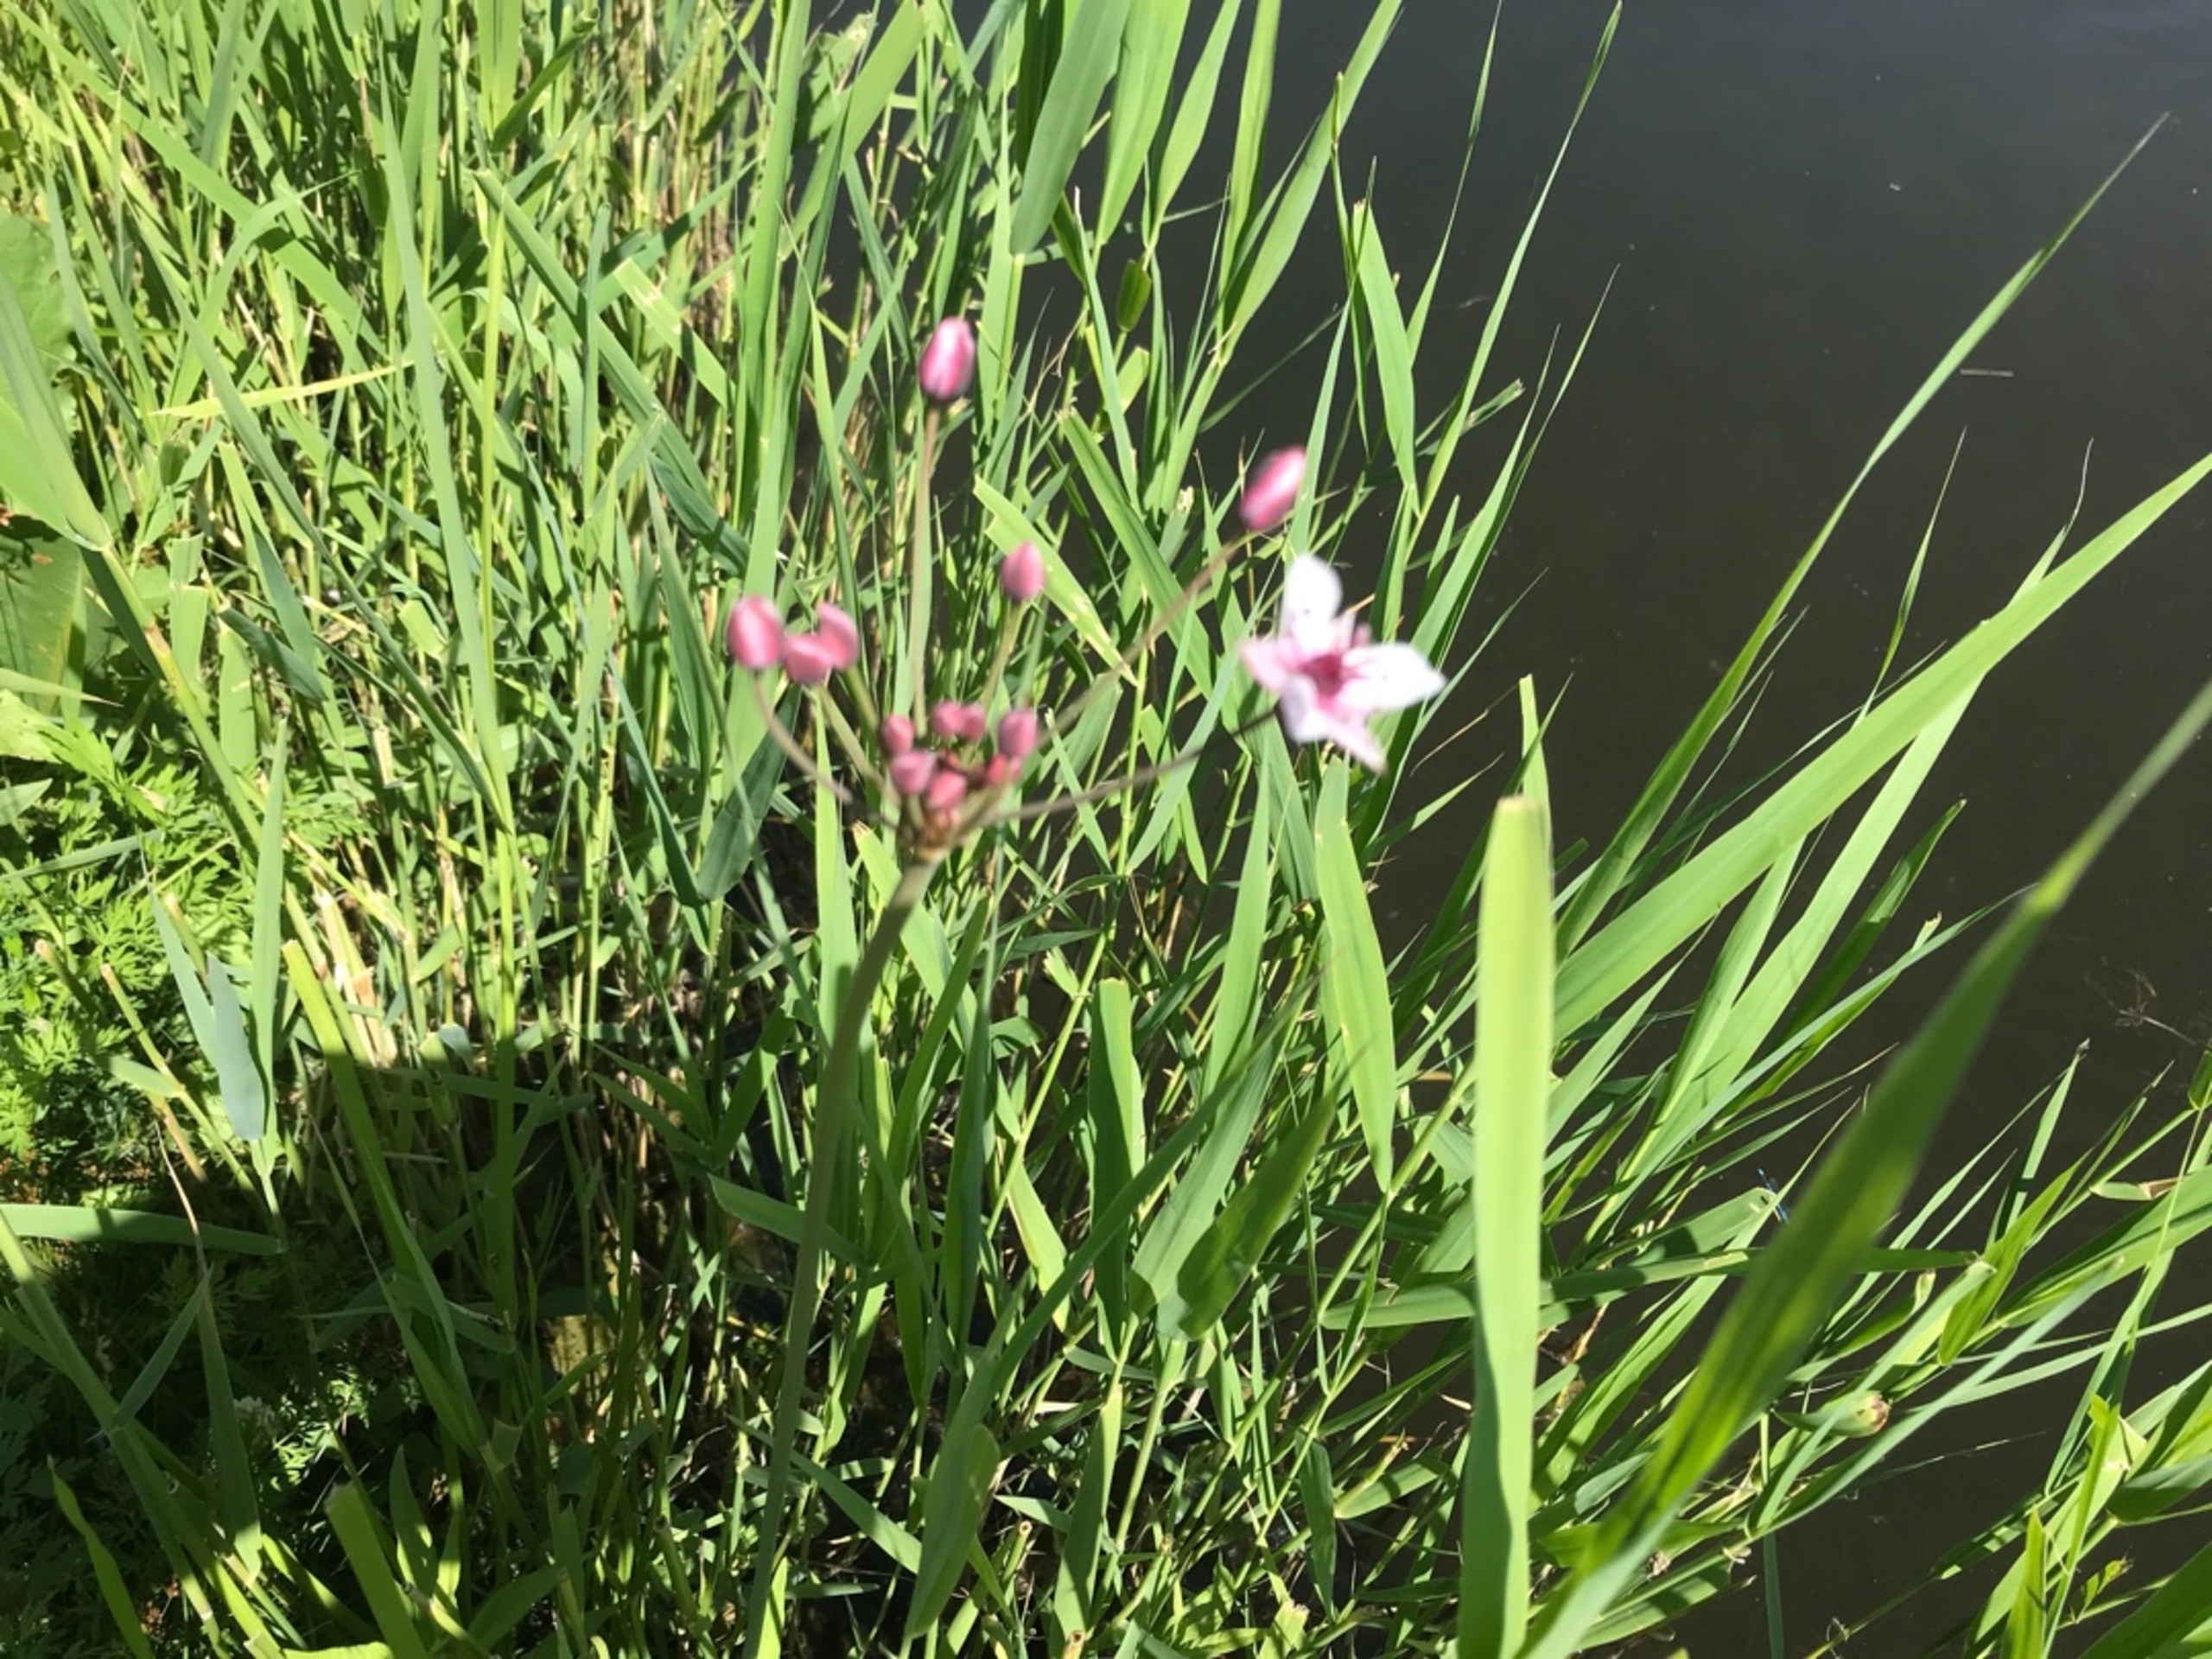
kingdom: Plantae
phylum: Tracheophyta
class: Liliopsida
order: Alismatales
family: Butomaceae
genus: Butomus
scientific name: Butomus umbellatus
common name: Brudelys
